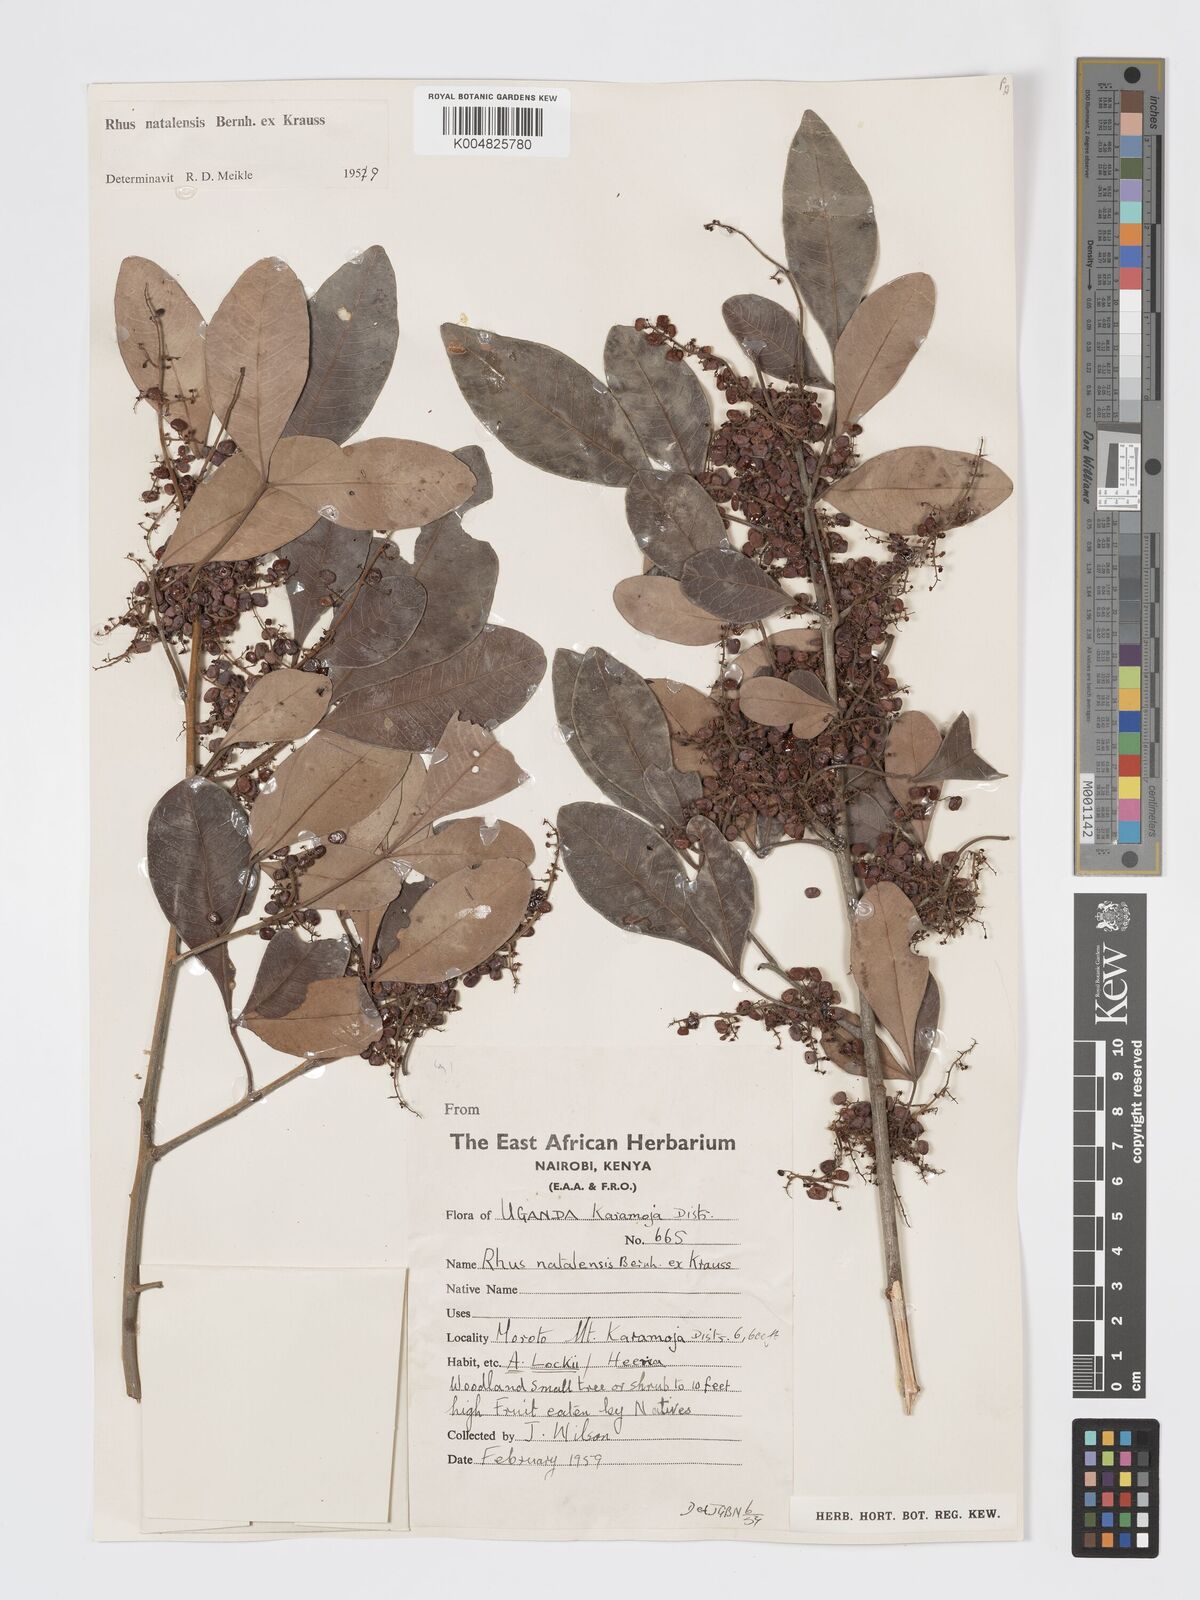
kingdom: Plantae
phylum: Tracheophyta
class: Magnoliopsida
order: Sapindales
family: Anacardiaceae
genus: Searsia
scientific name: Searsia natalensis
